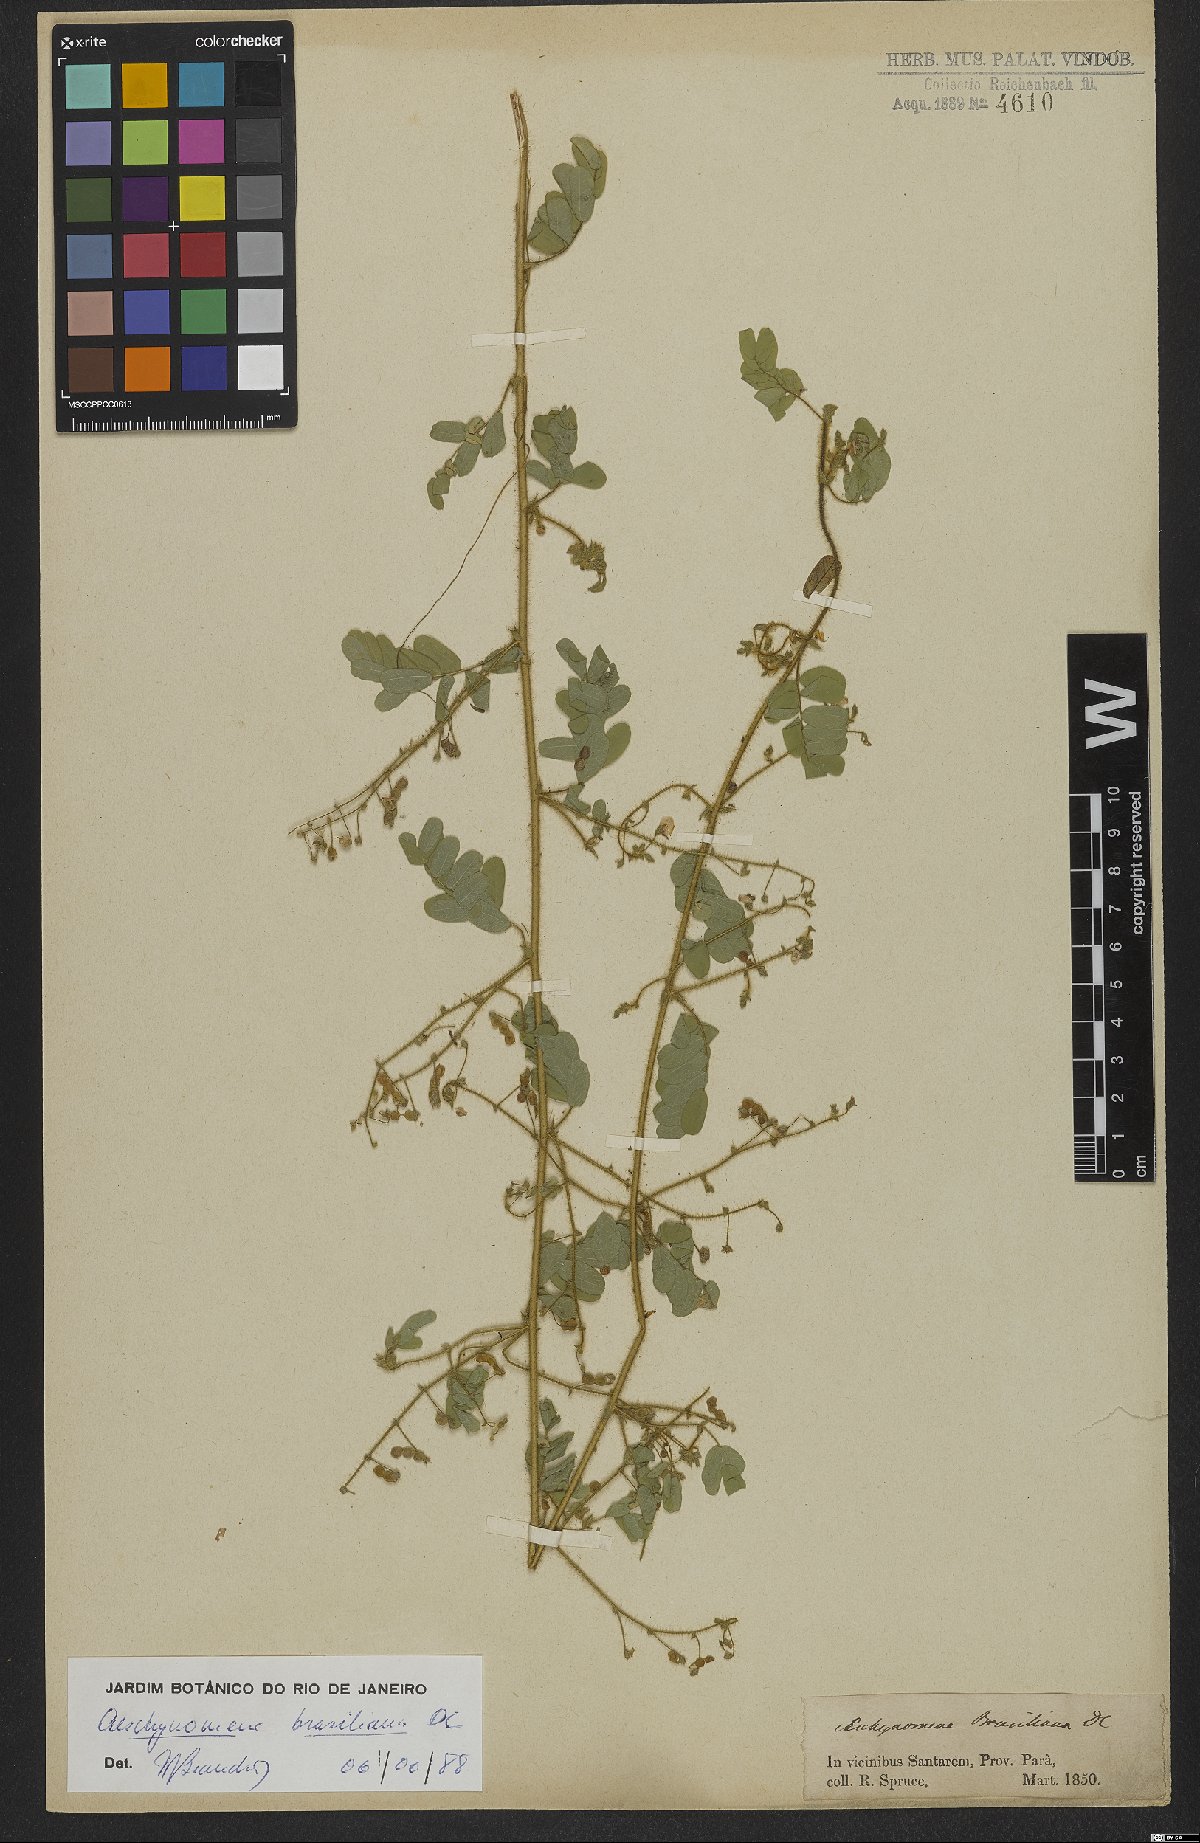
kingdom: Plantae
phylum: Tracheophyta
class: Magnoliopsida
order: Fabales
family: Fabaceae
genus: Ctenodon
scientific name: Ctenodon brasilianus
